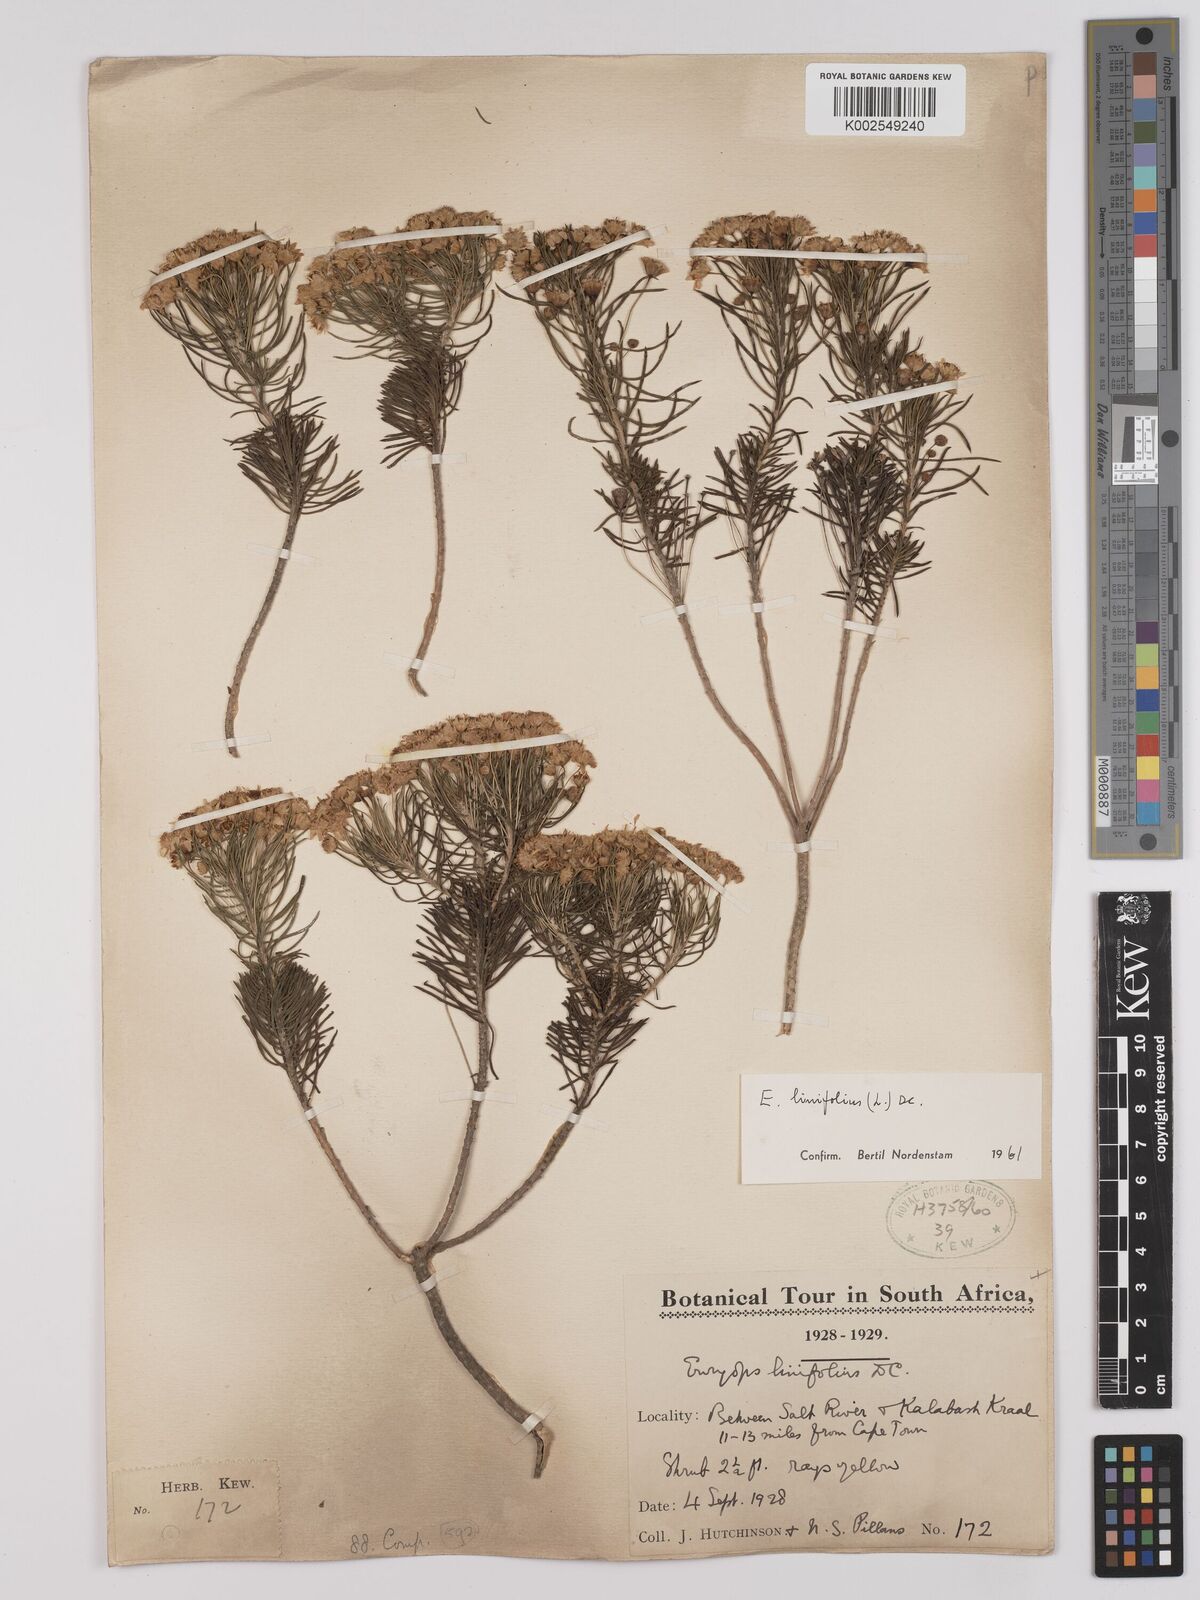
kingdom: Plantae
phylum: Tracheophyta
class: Magnoliopsida
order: Asterales
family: Asteraceae
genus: Euryops
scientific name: Euryops linifolius
